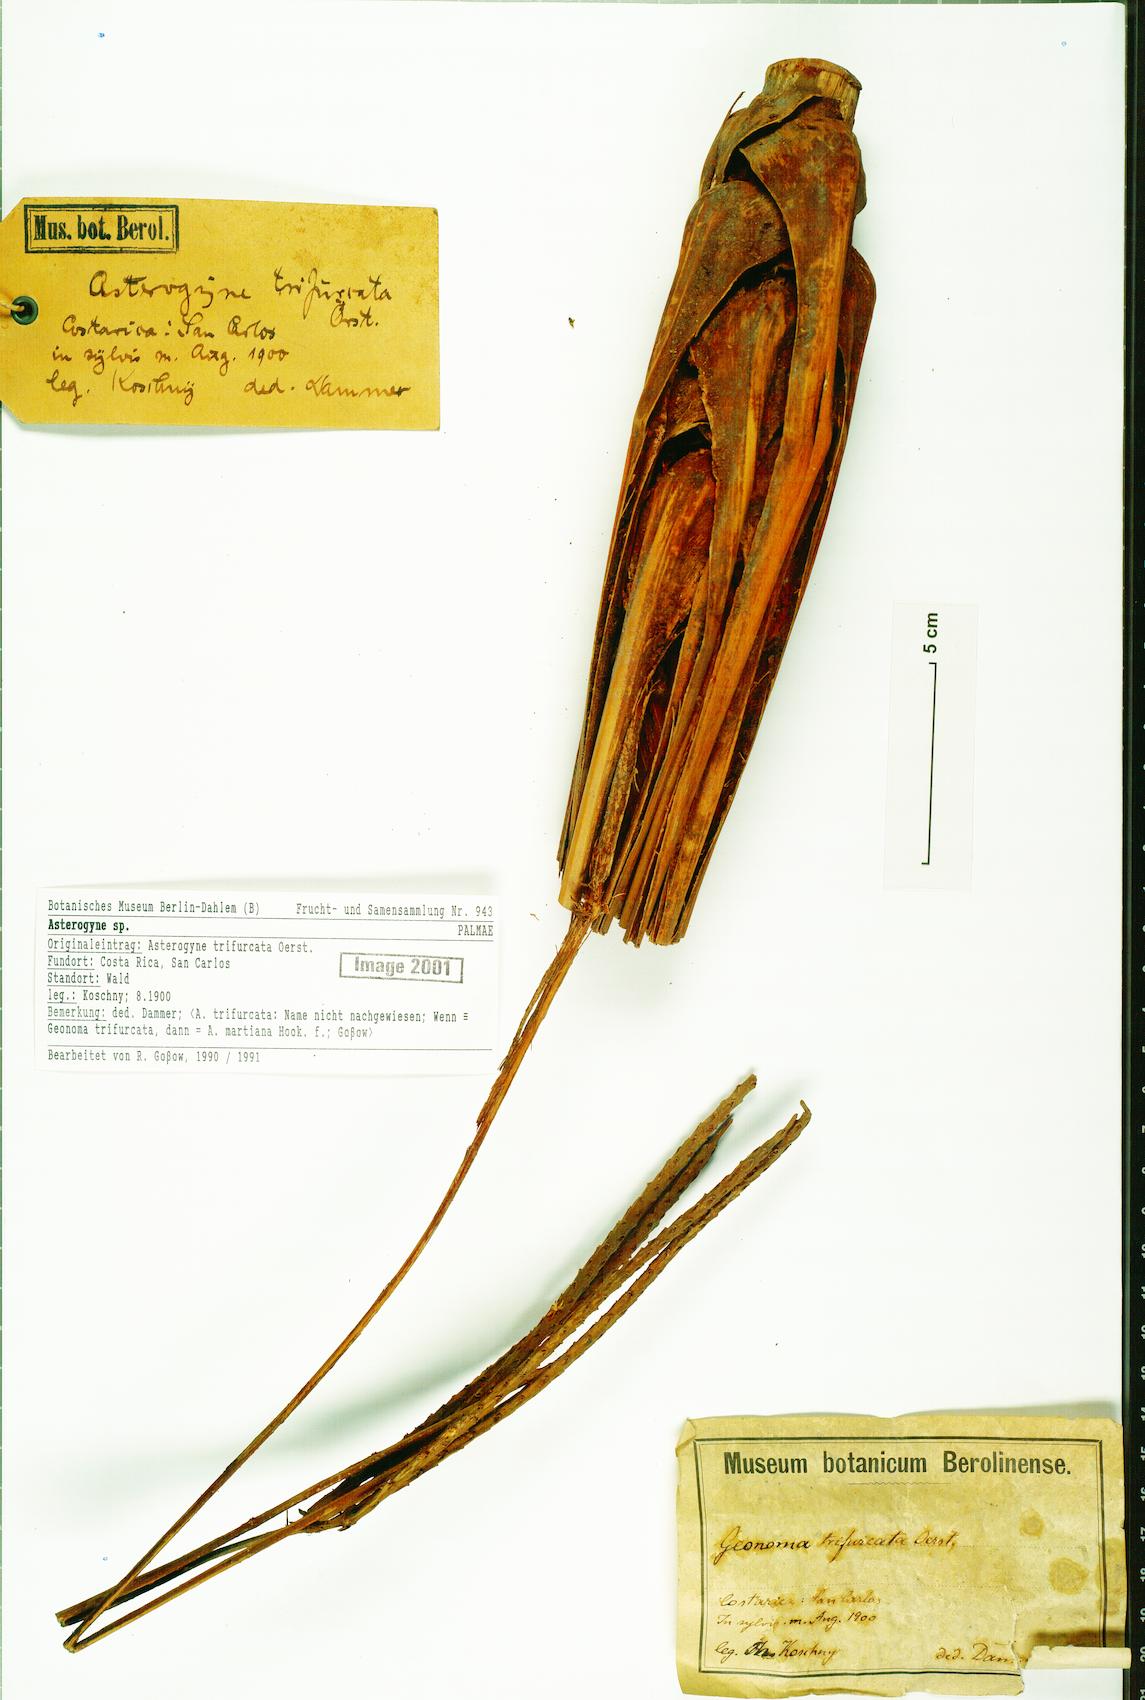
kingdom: Plantae
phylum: Tracheophyta
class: Liliopsida
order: Arecales
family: Arecaceae
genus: Asterogyne
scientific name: Asterogyne
